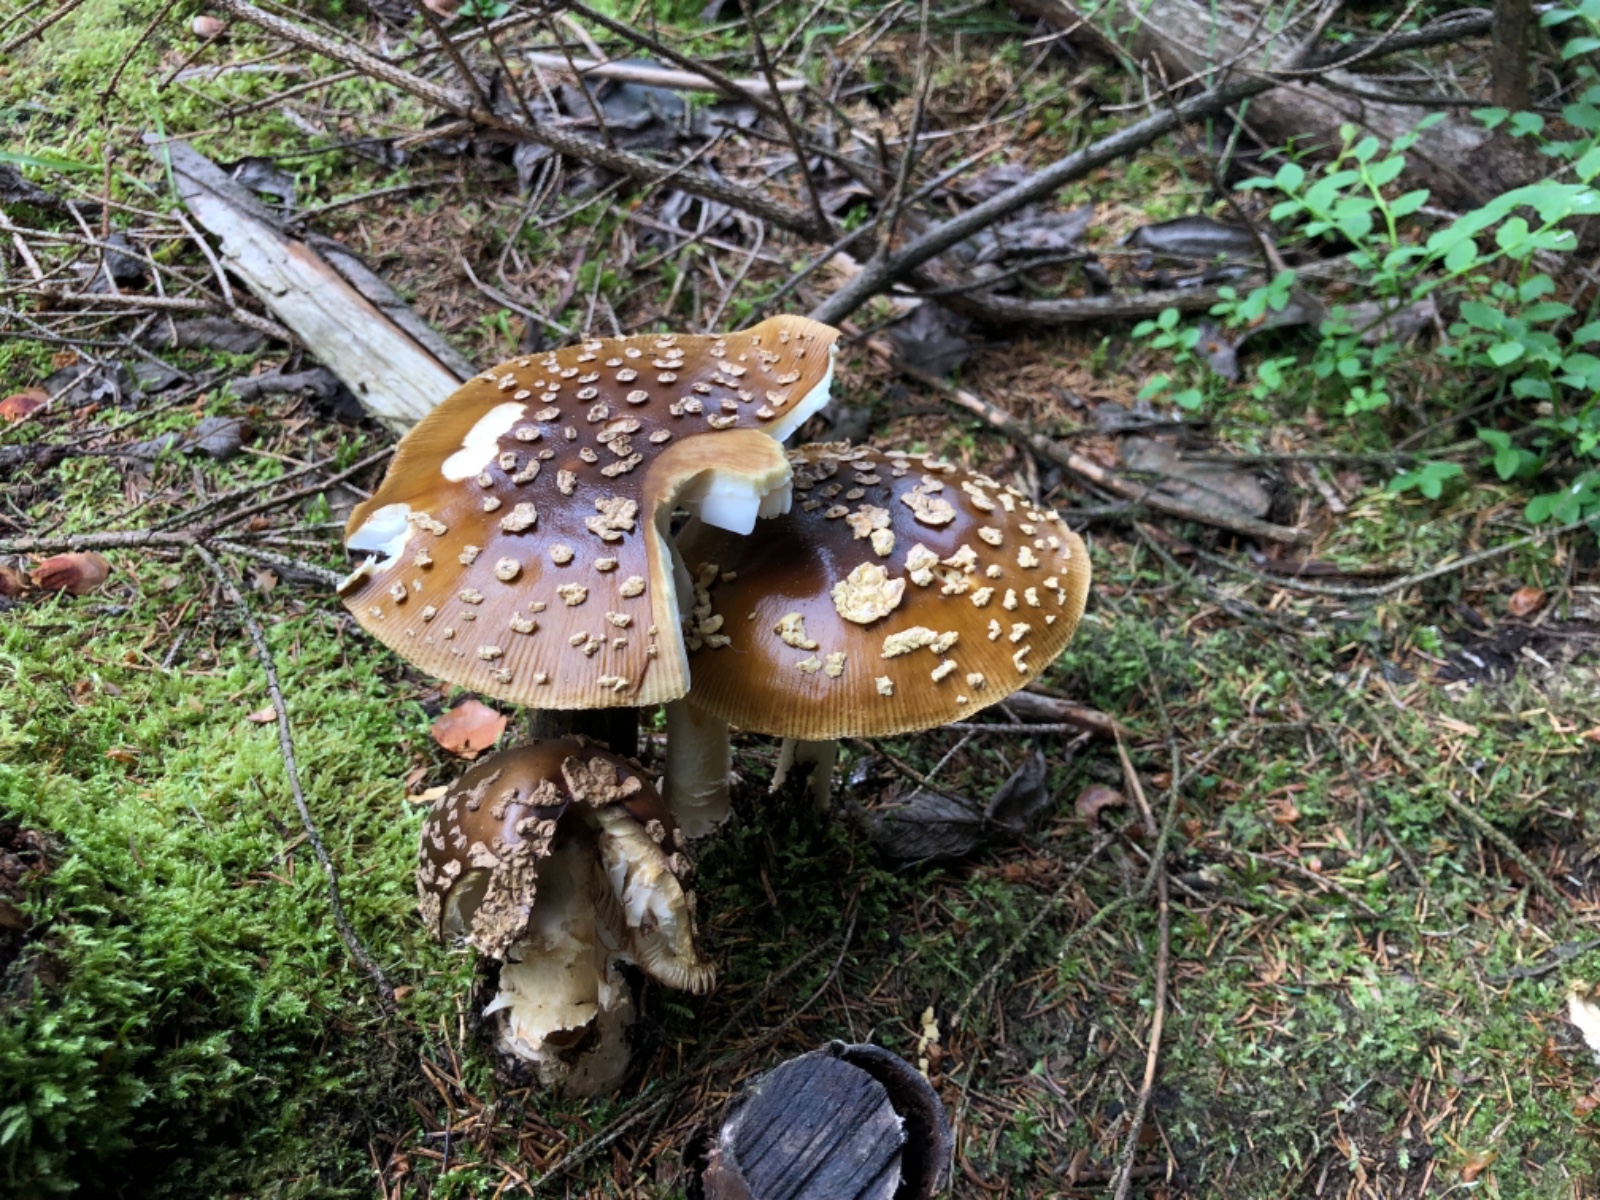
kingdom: Fungi
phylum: Basidiomycota
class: Agaricomycetes
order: Agaricales
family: Amanitaceae
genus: Amanita
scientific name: Amanita regalis
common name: brun fluesvamp
